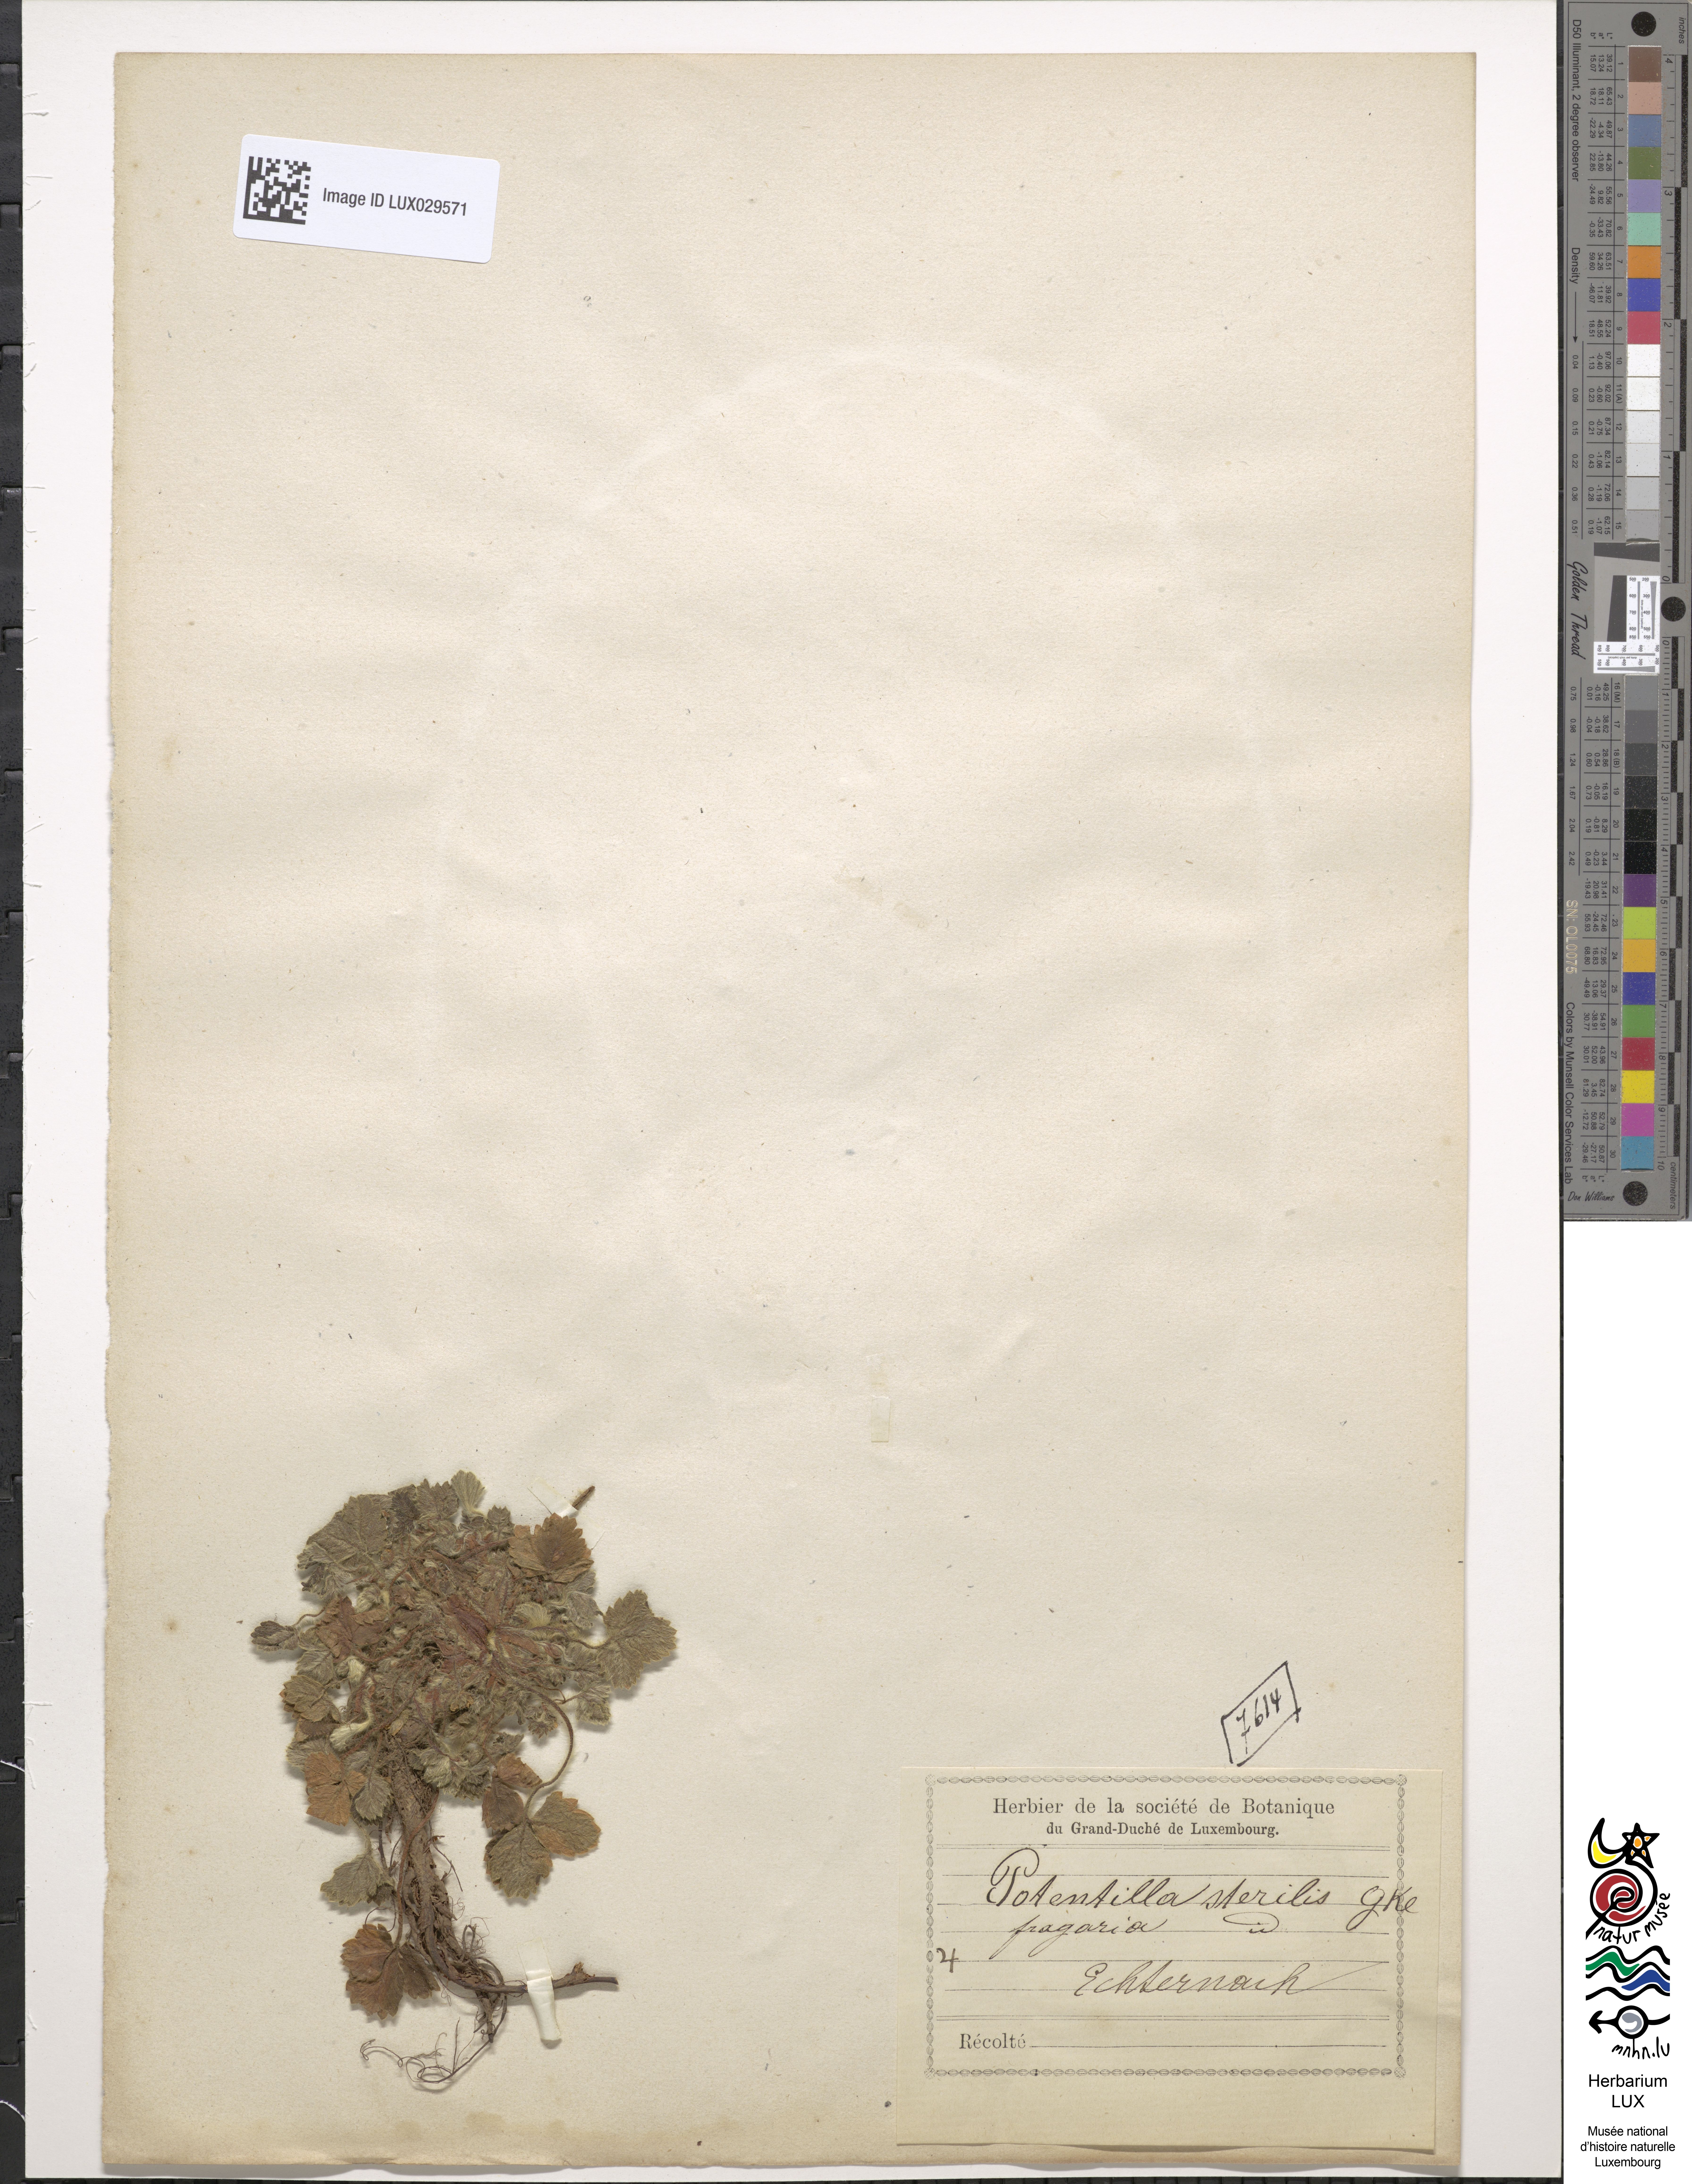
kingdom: Plantae
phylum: Tracheophyta
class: Magnoliopsida
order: Rosales
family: Rosaceae
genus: Potentilla
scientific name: Potentilla sterilis
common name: Barren strawberry
